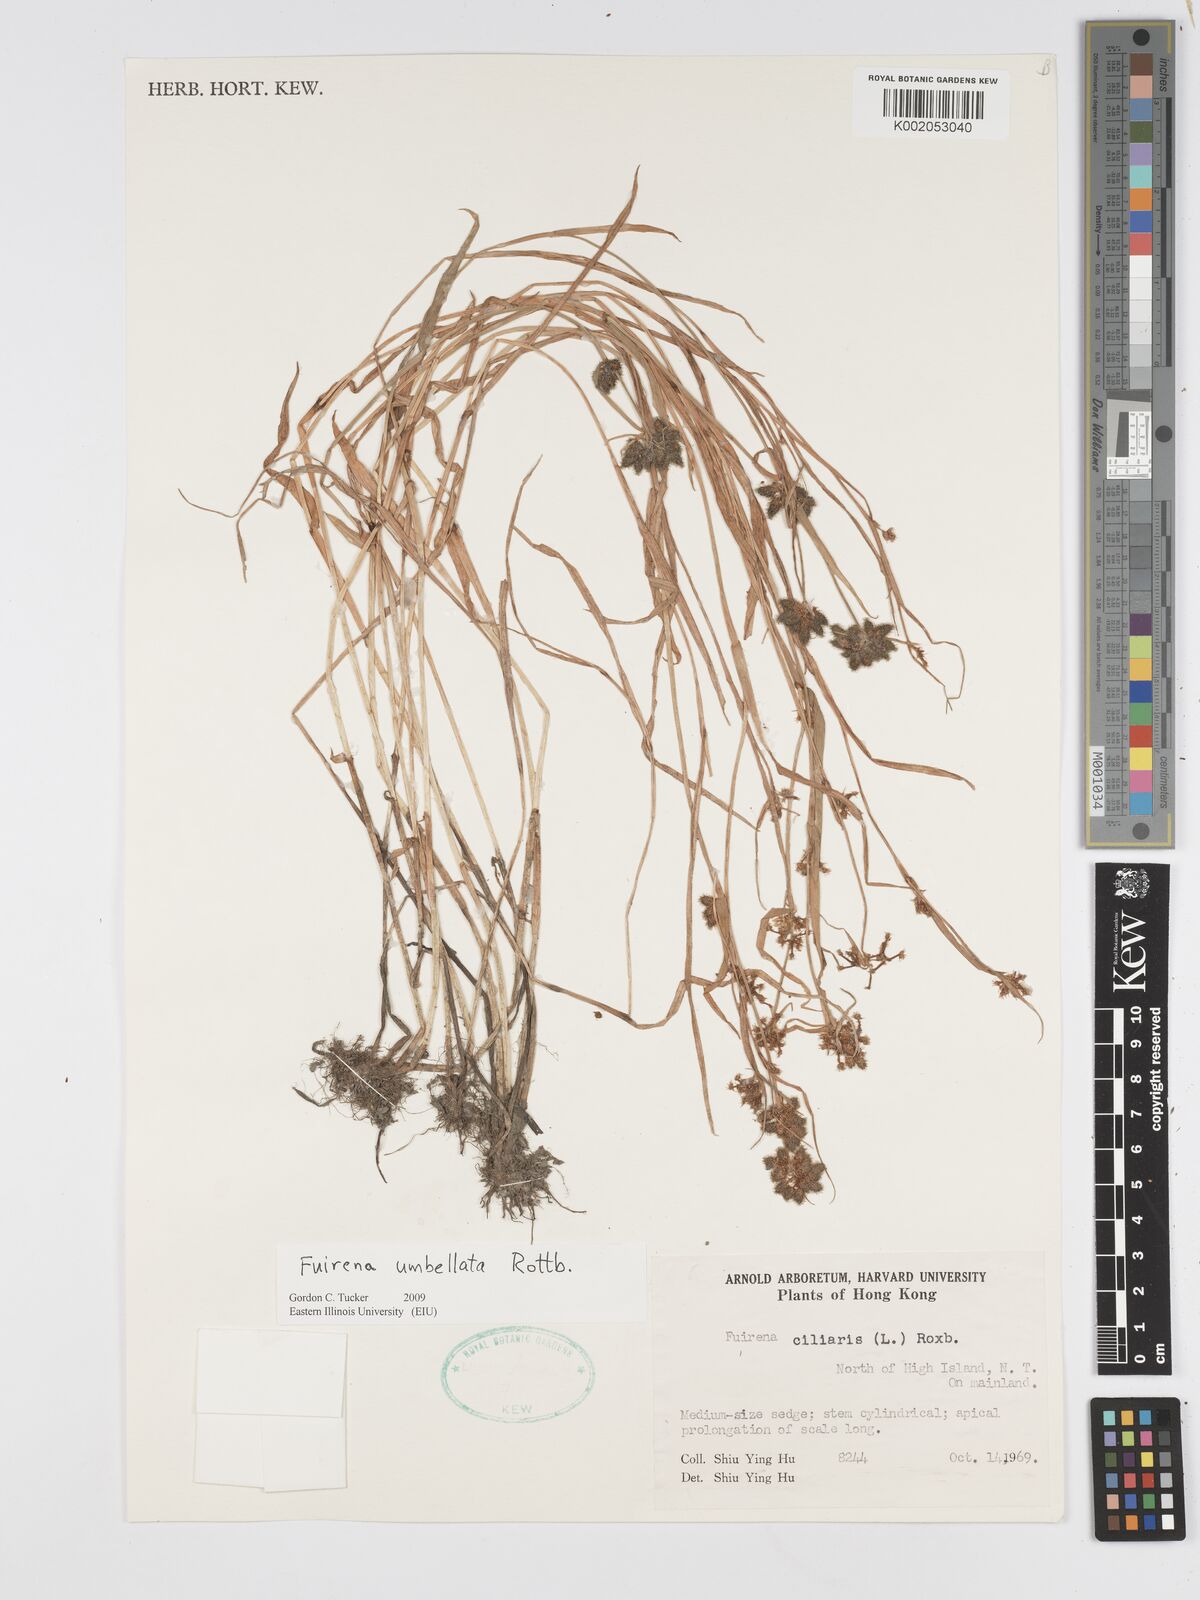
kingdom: Plantae
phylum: Tracheophyta
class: Liliopsida
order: Poales
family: Cyperaceae
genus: Fuirena
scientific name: Fuirena umbellata
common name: Yefen
